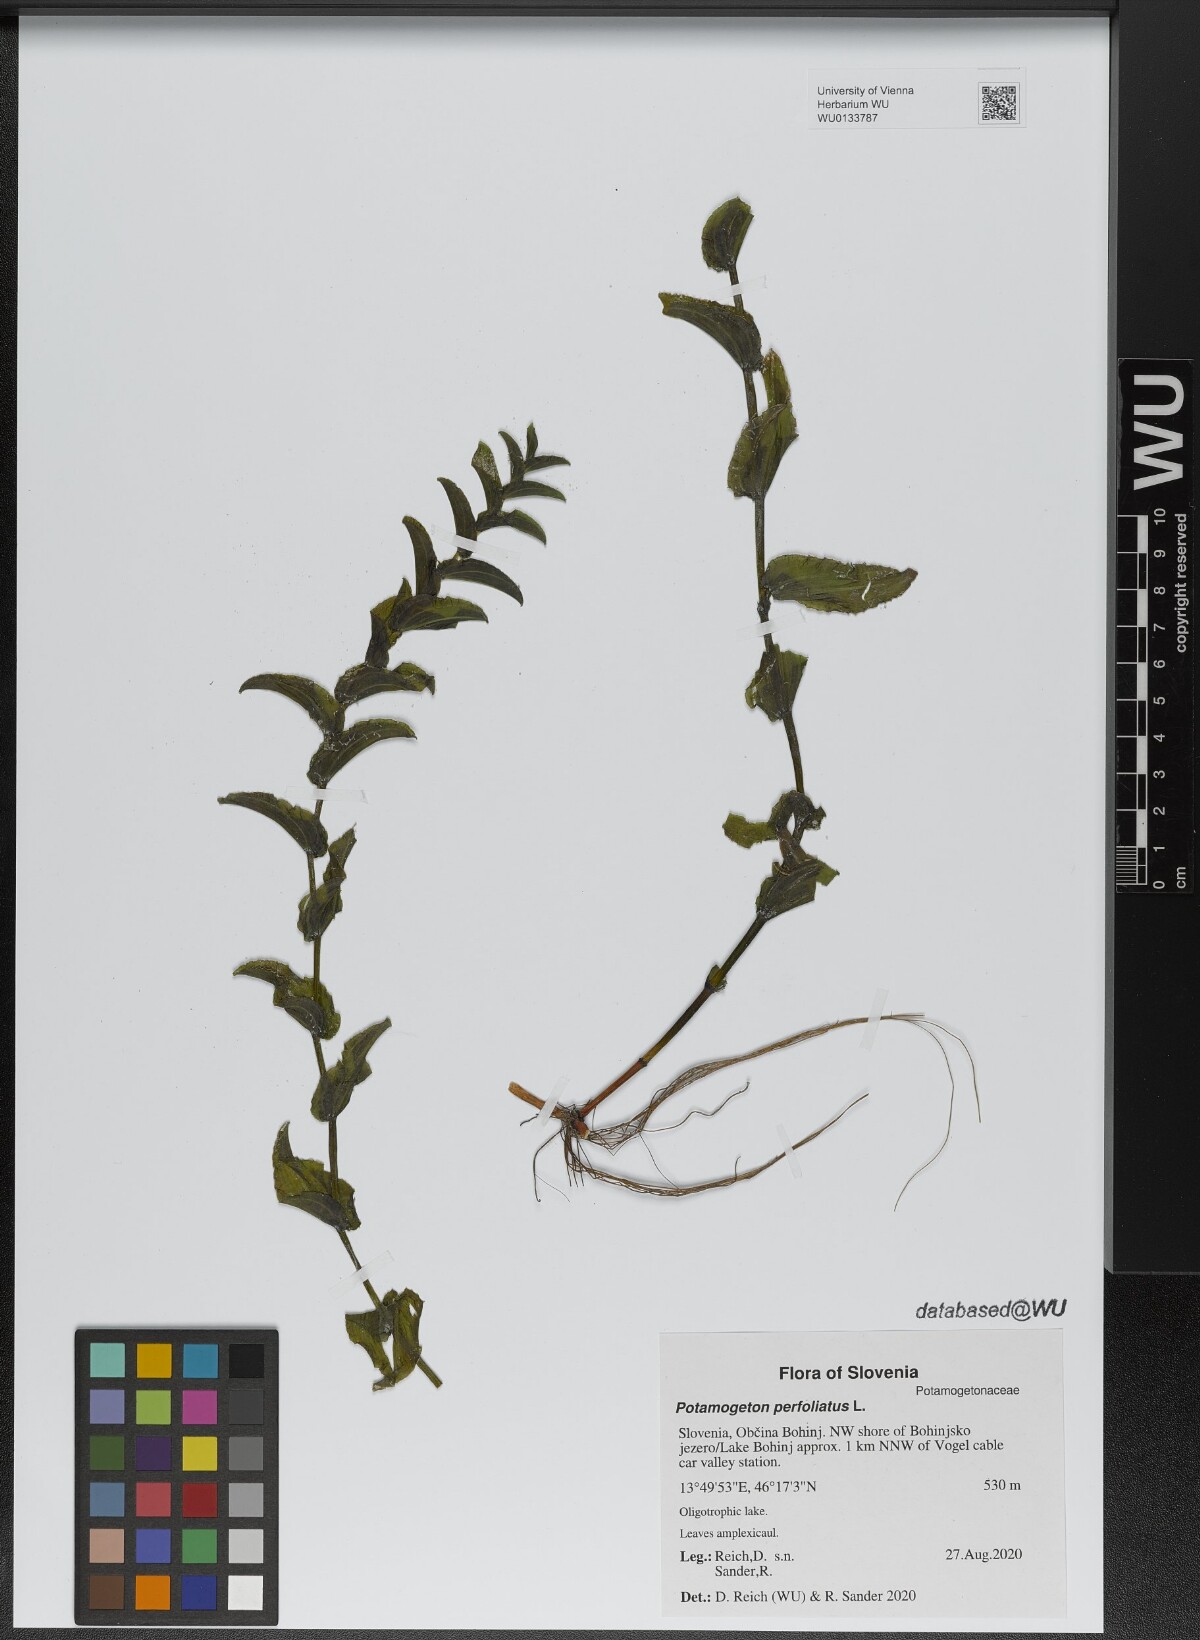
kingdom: Plantae
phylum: Tracheophyta
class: Liliopsida
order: Alismatales
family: Potamogetonaceae
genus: Potamogeton
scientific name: Potamogeton perfoliatus
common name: Perfoliate pondweed
